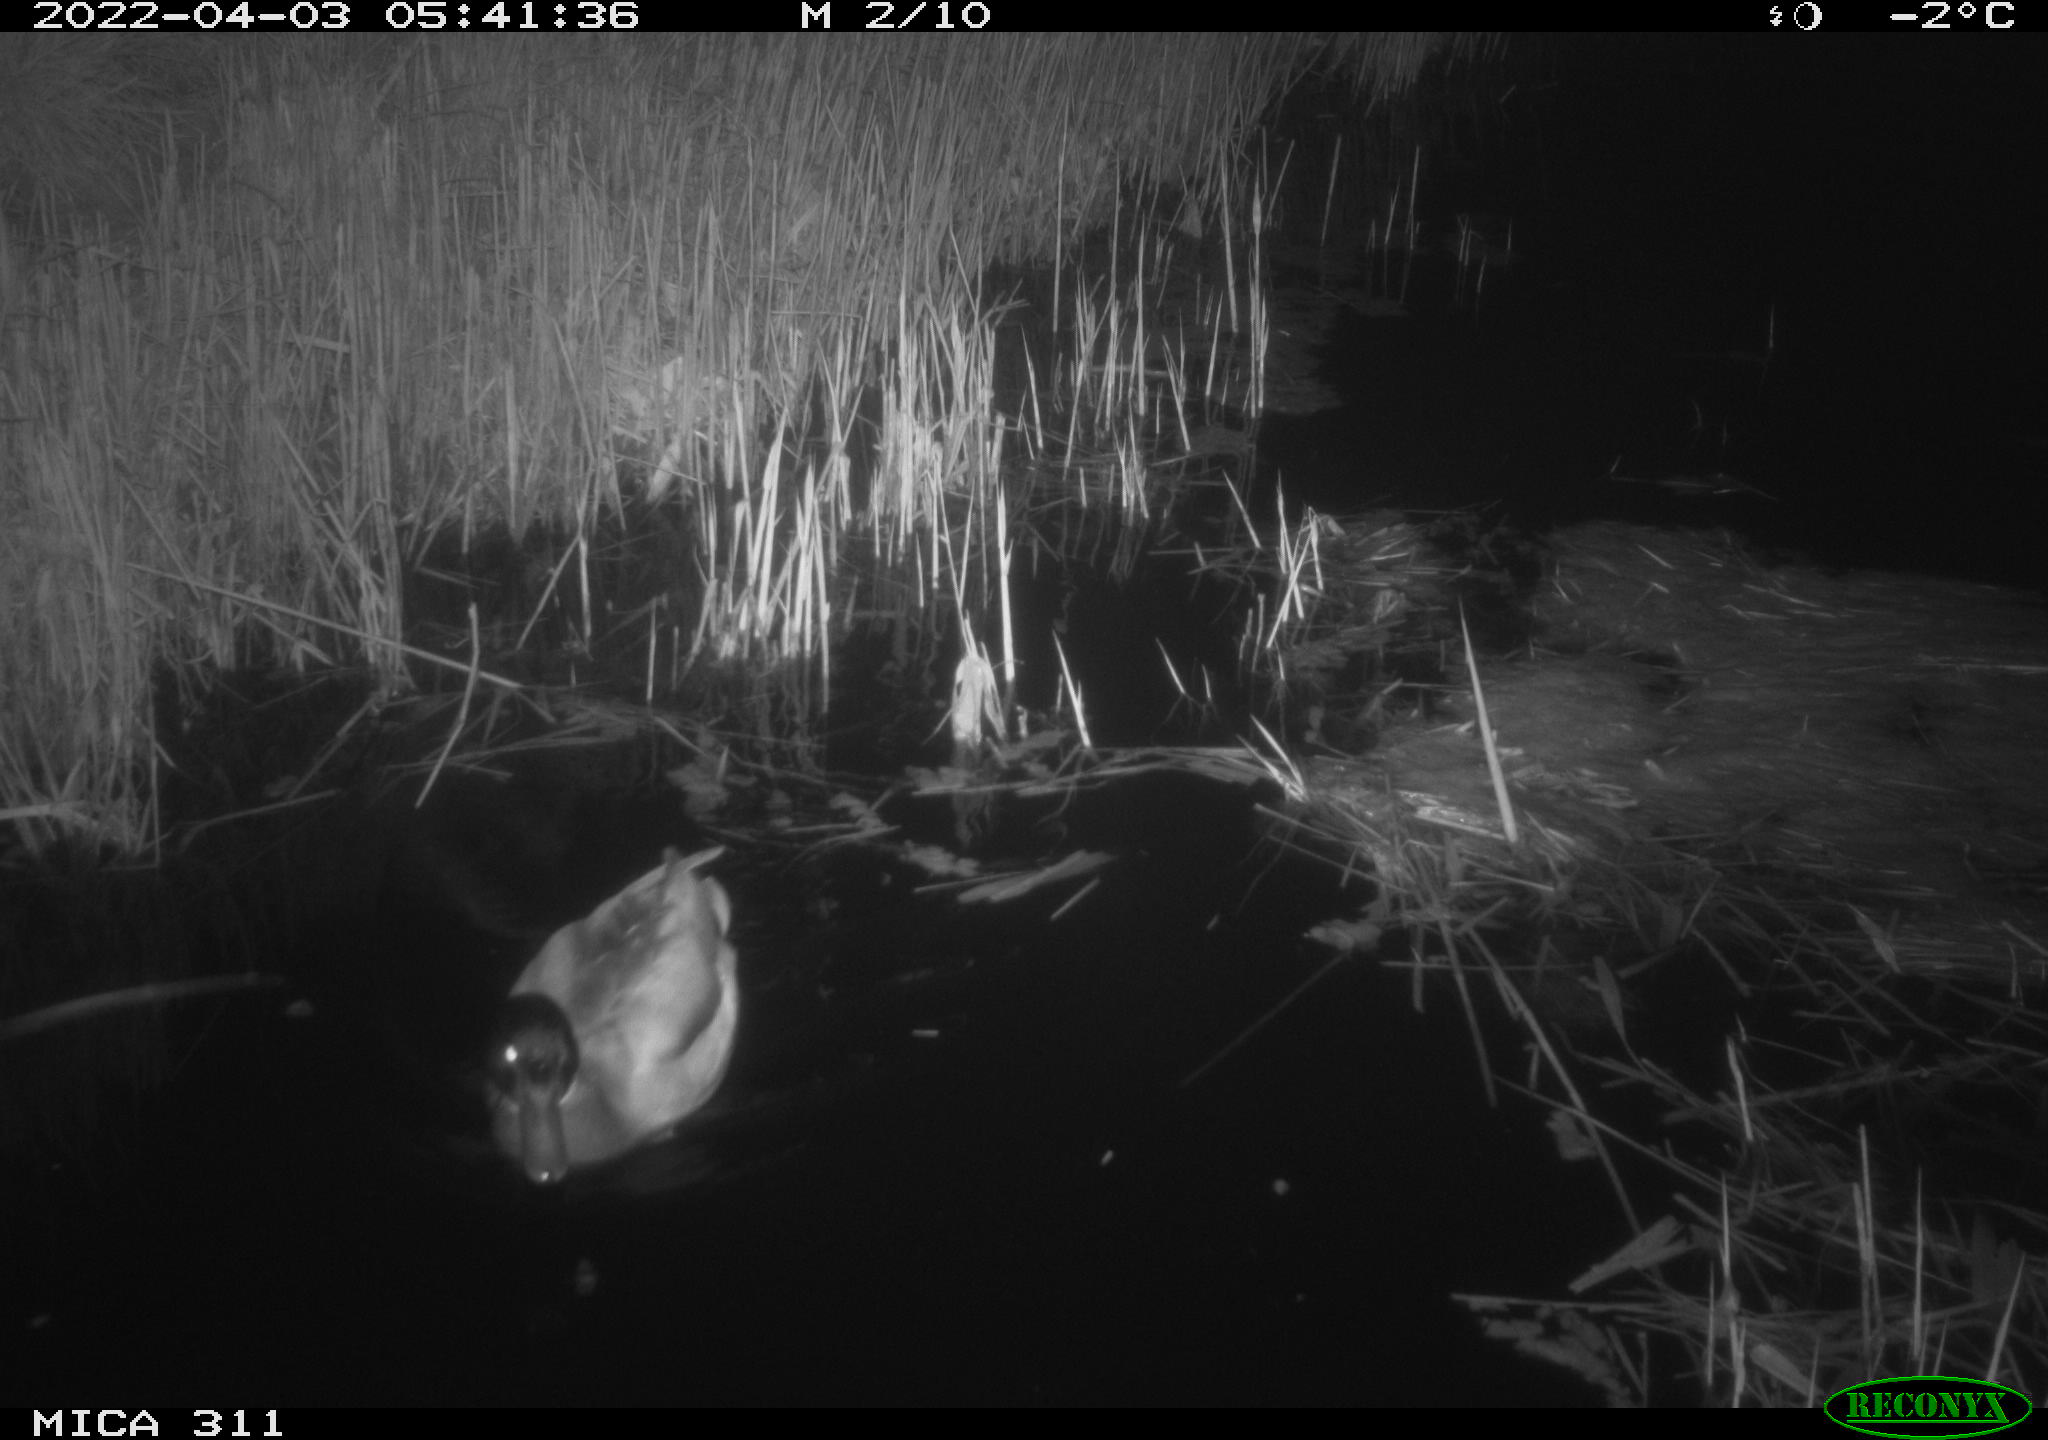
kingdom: Animalia
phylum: Chordata
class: Aves
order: Anseriformes
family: Anatidae
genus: Anas
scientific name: Anas platyrhynchos
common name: Mallard
